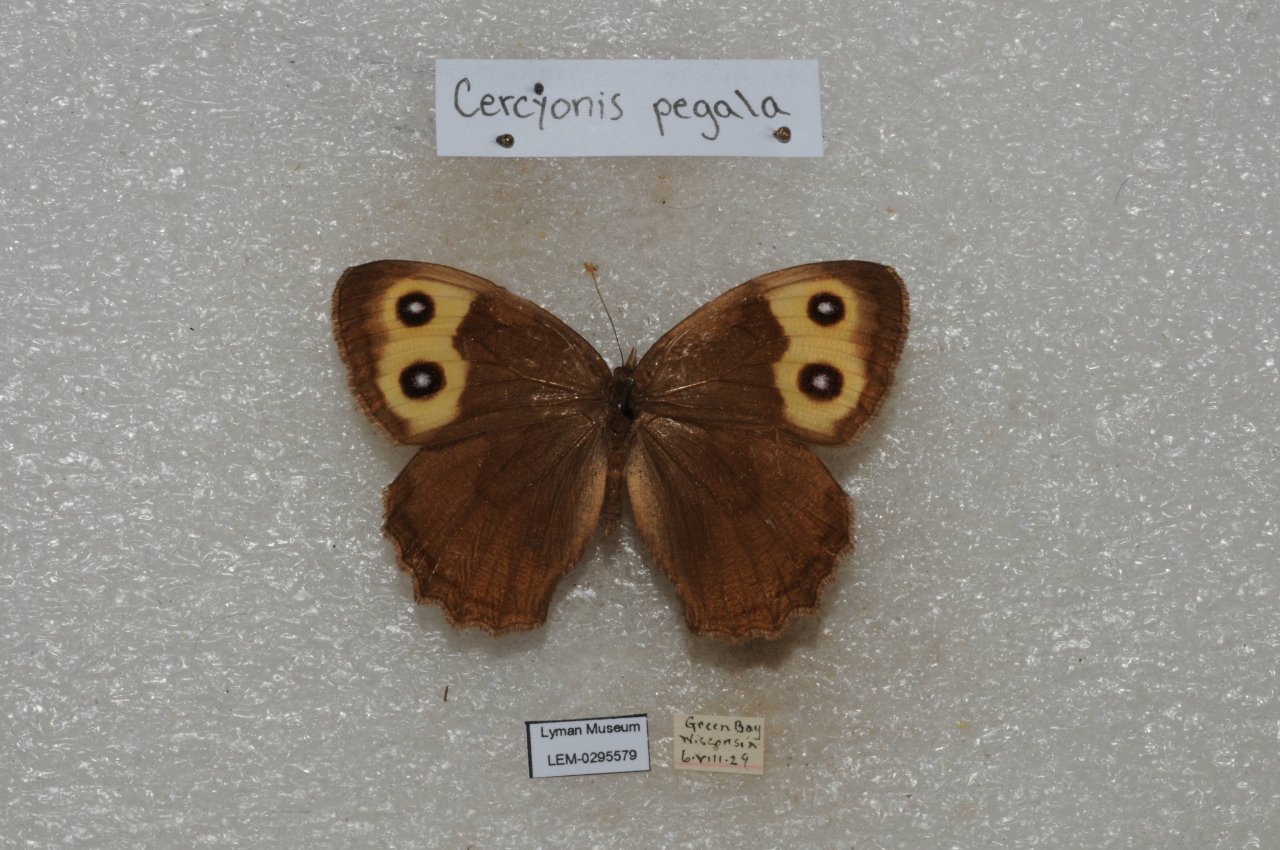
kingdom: Animalia
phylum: Arthropoda
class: Insecta
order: Lepidoptera
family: Nymphalidae
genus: Cercyonis
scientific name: Cercyonis pegala
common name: Common Wood-Nymph
